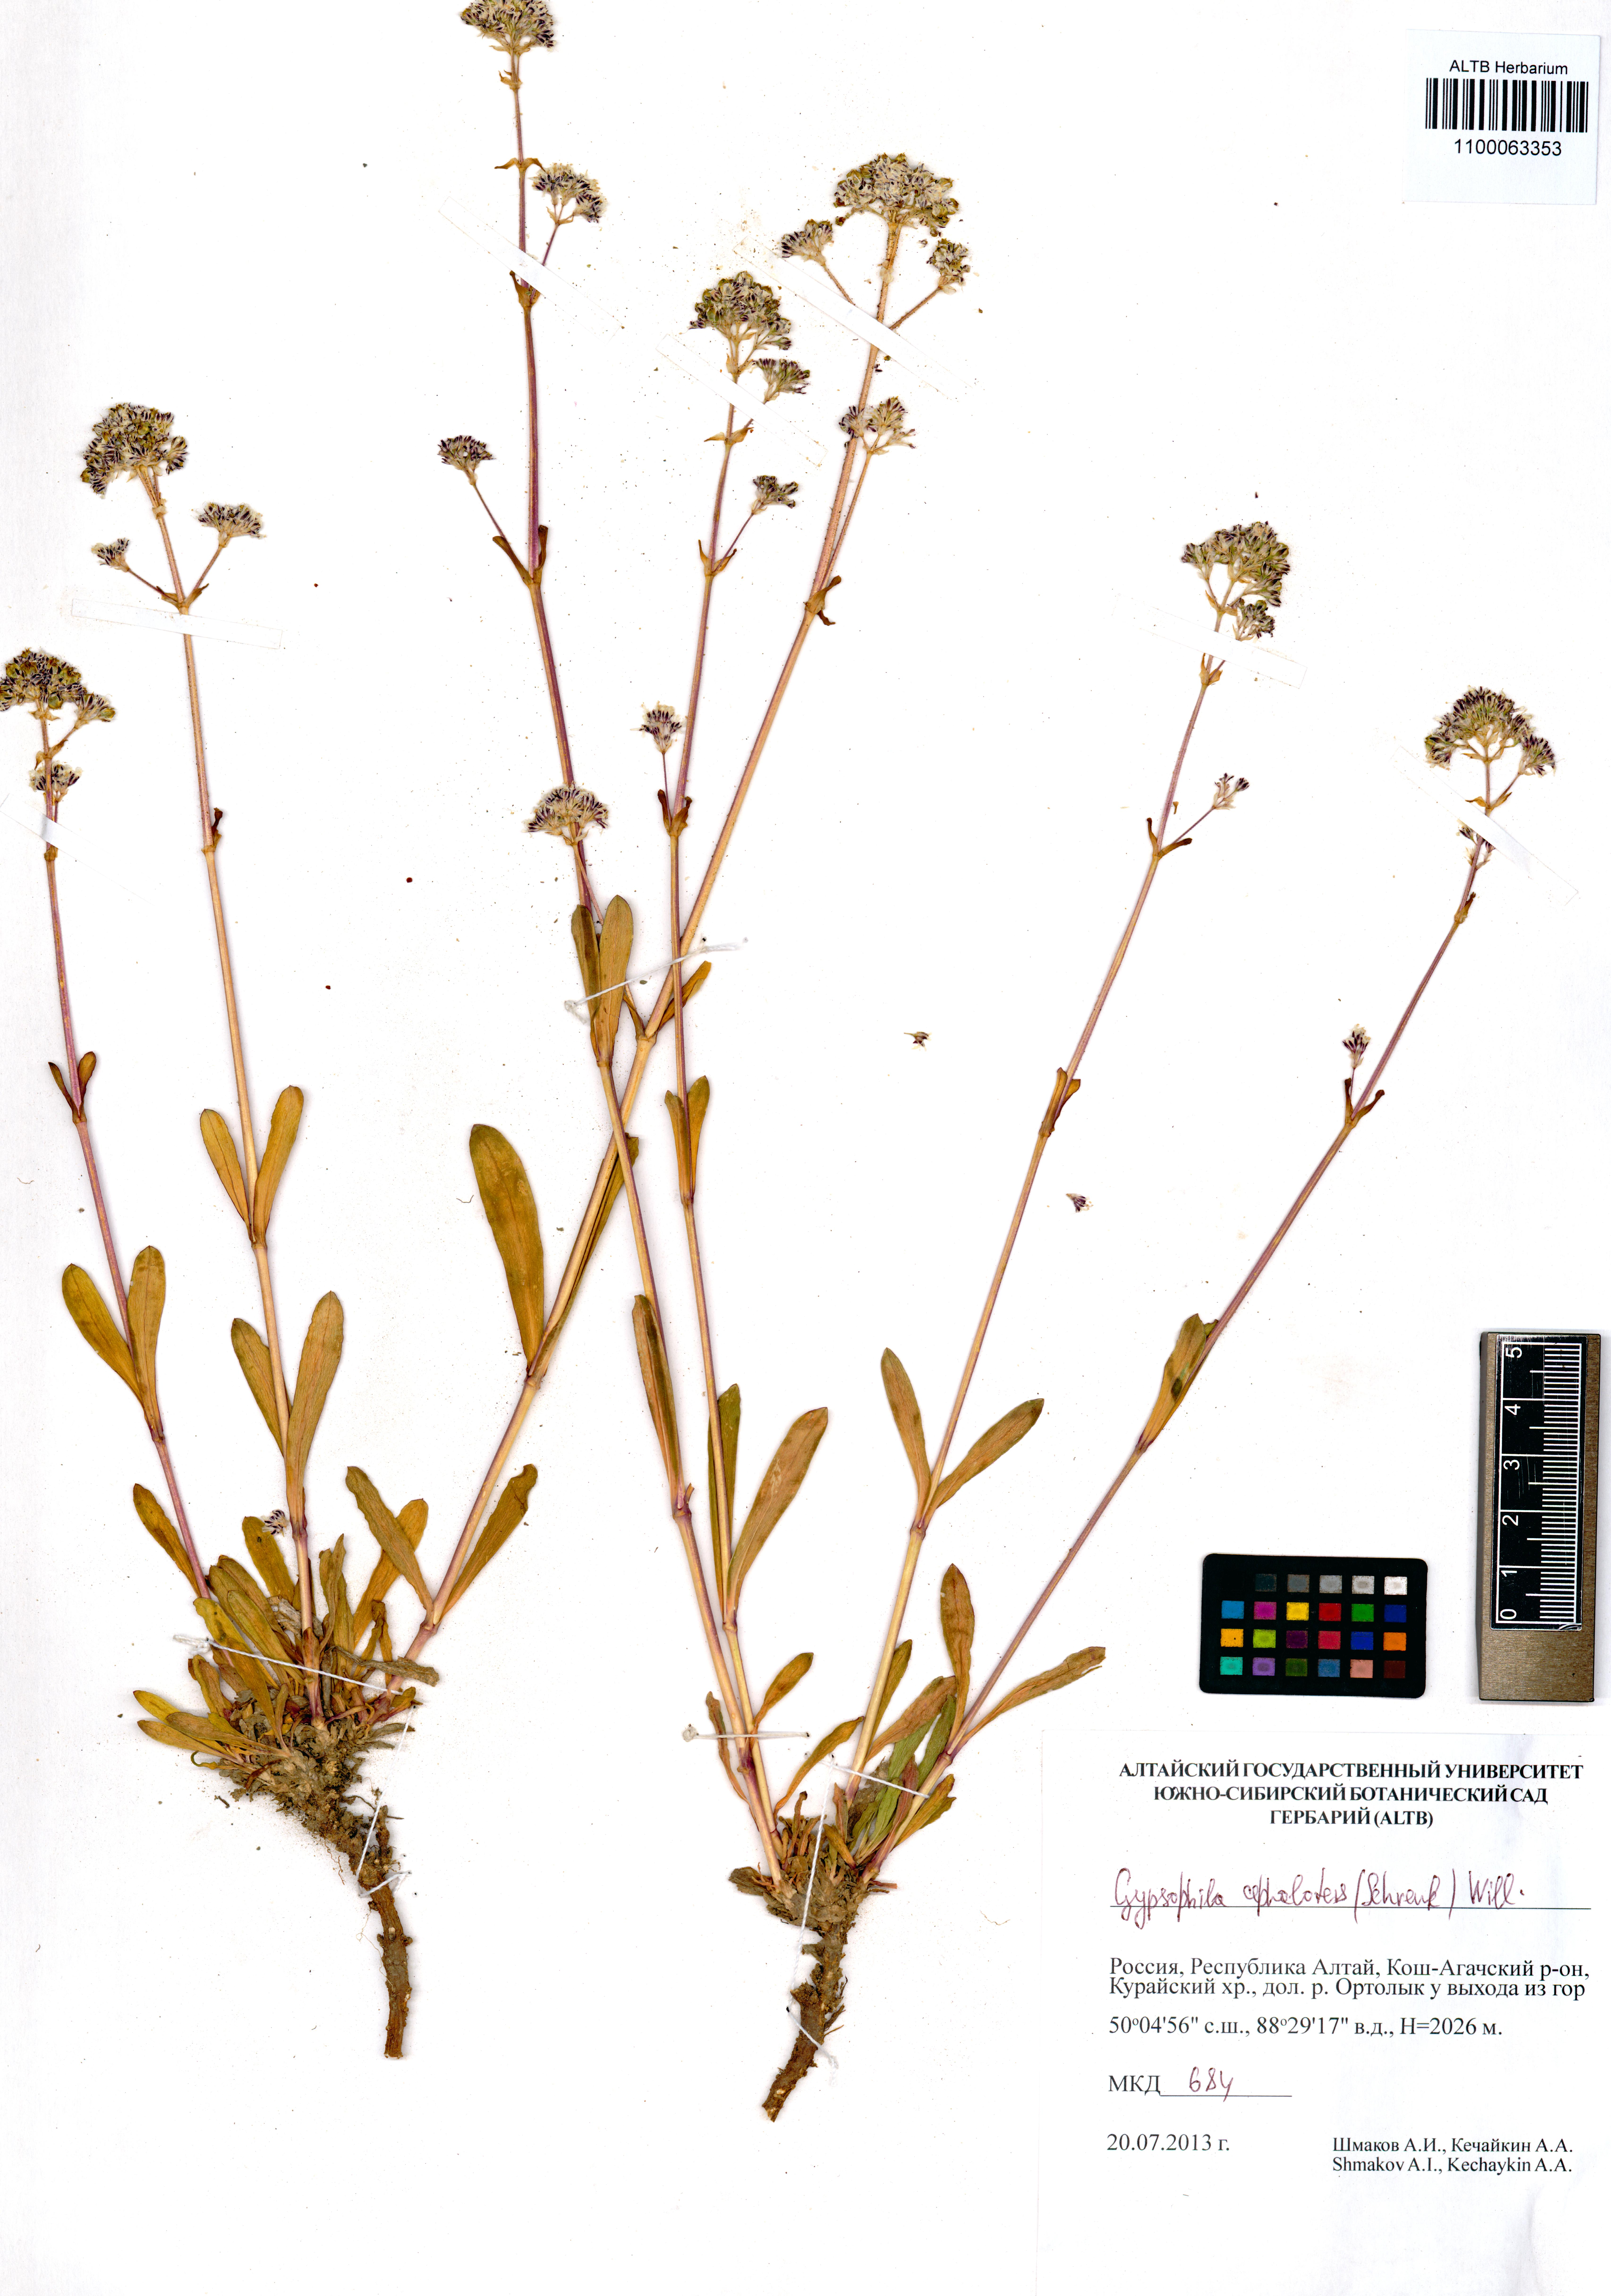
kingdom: Plantae
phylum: Tracheophyta
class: Magnoliopsida
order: Caryophyllales
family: Caryophyllaceae
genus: Gypsophila
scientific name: Gypsophila cephalotes
